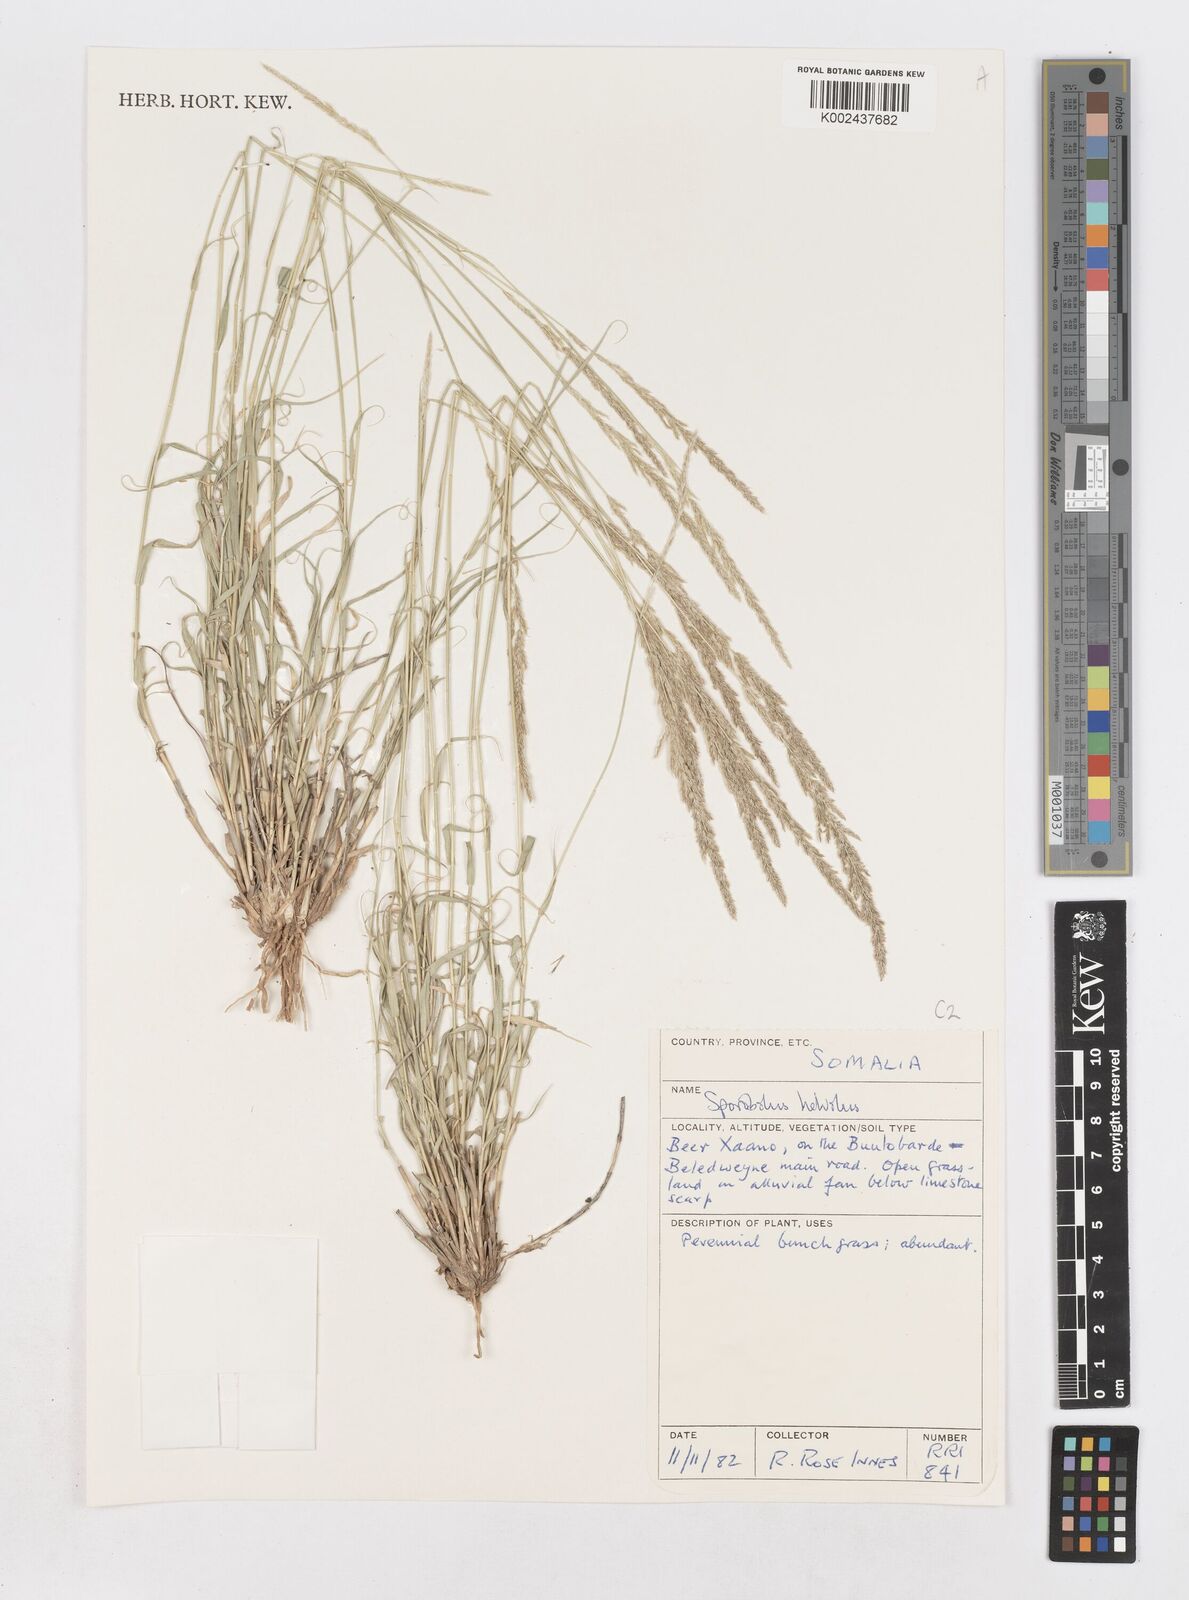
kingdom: Plantae
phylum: Tracheophyta
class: Liliopsida
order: Poales
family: Poaceae
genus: Sporobolus
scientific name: Sporobolus helvolus
